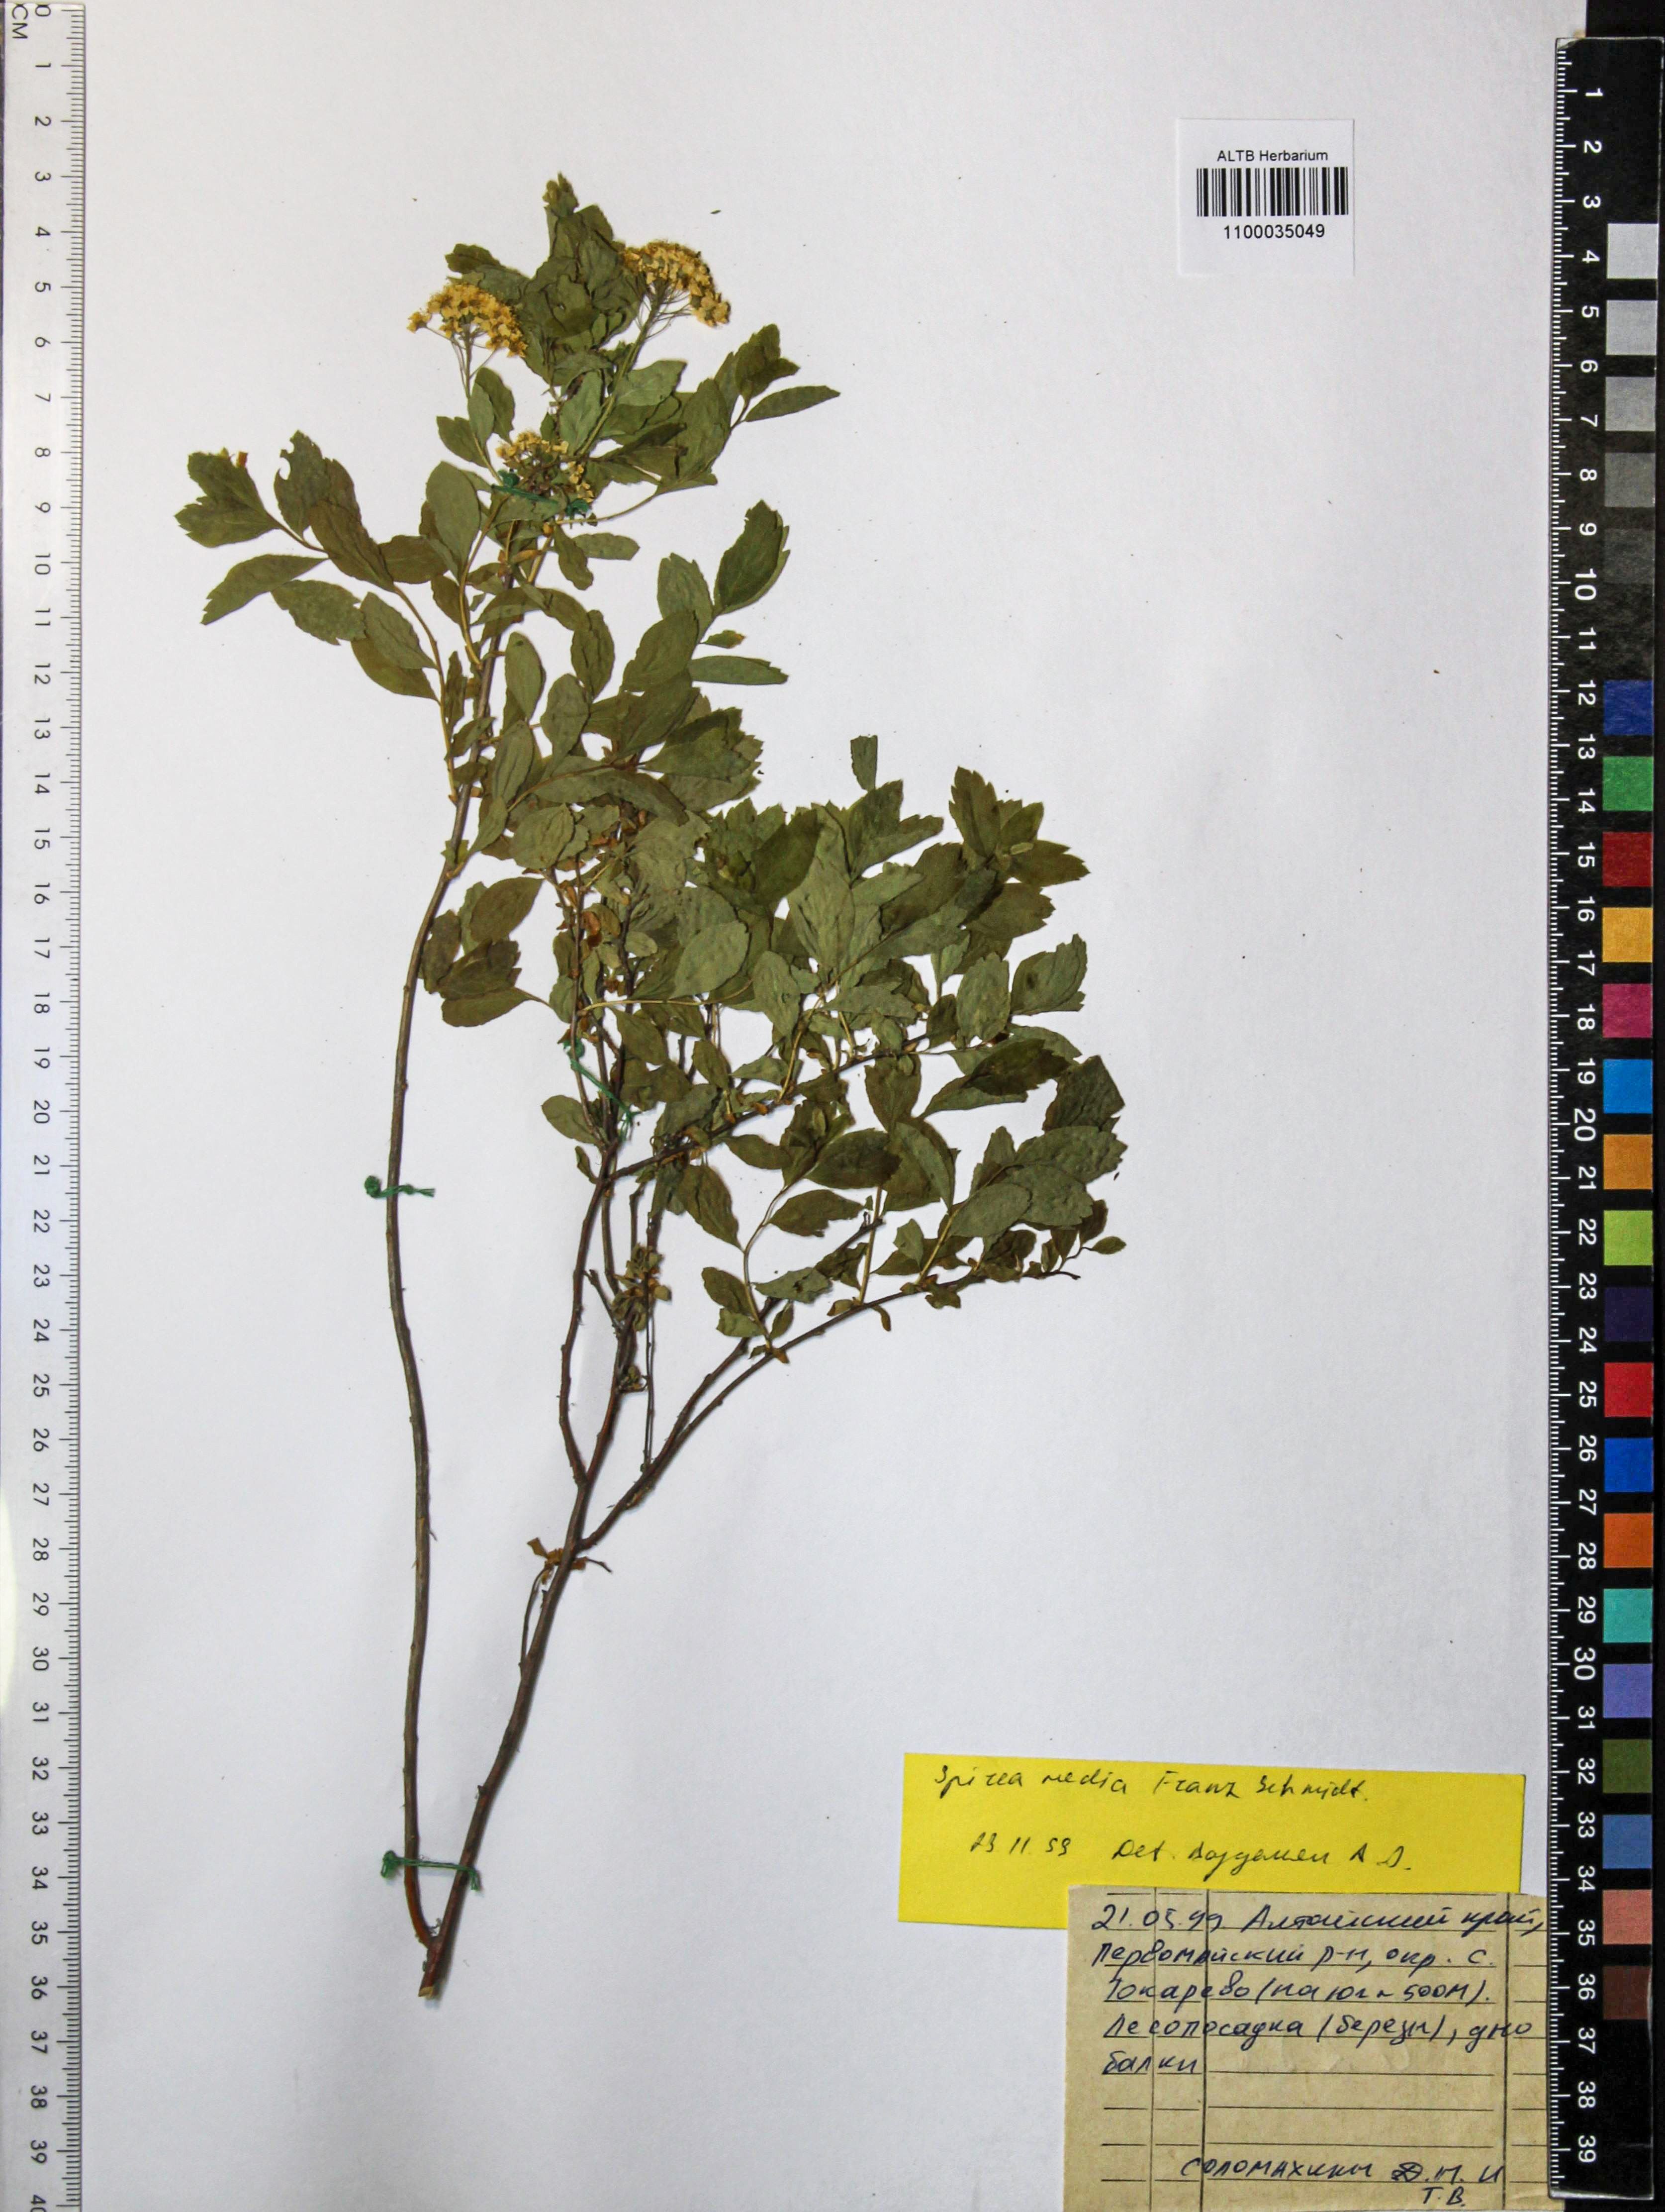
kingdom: Plantae
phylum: Tracheophyta
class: Magnoliopsida
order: Rosales
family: Rosaceae
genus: Spiraea
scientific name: Spiraea media
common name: Russian spiraea
